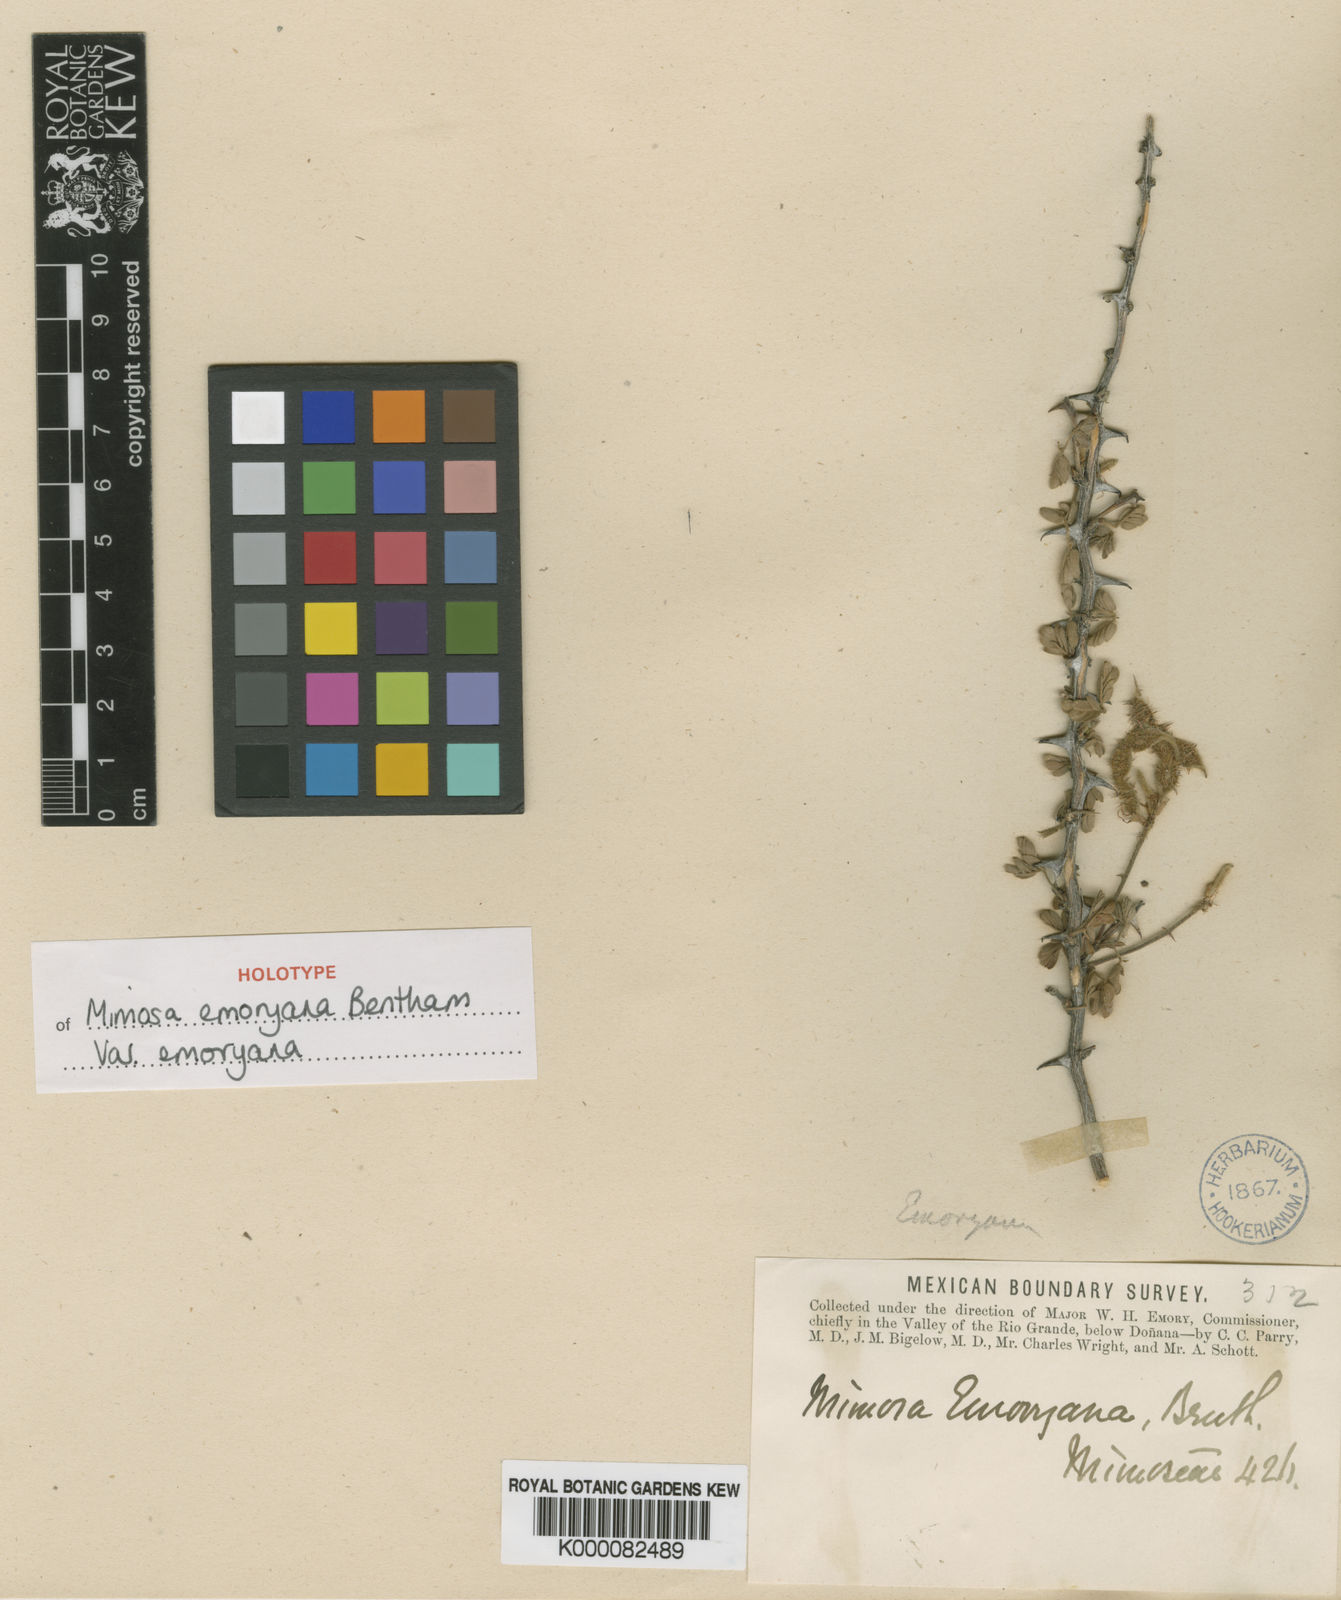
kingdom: Plantae
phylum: Tracheophyta
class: Magnoliopsida
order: Fabales
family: Fabaceae
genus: Mimosa
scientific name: Mimosa emoryana
